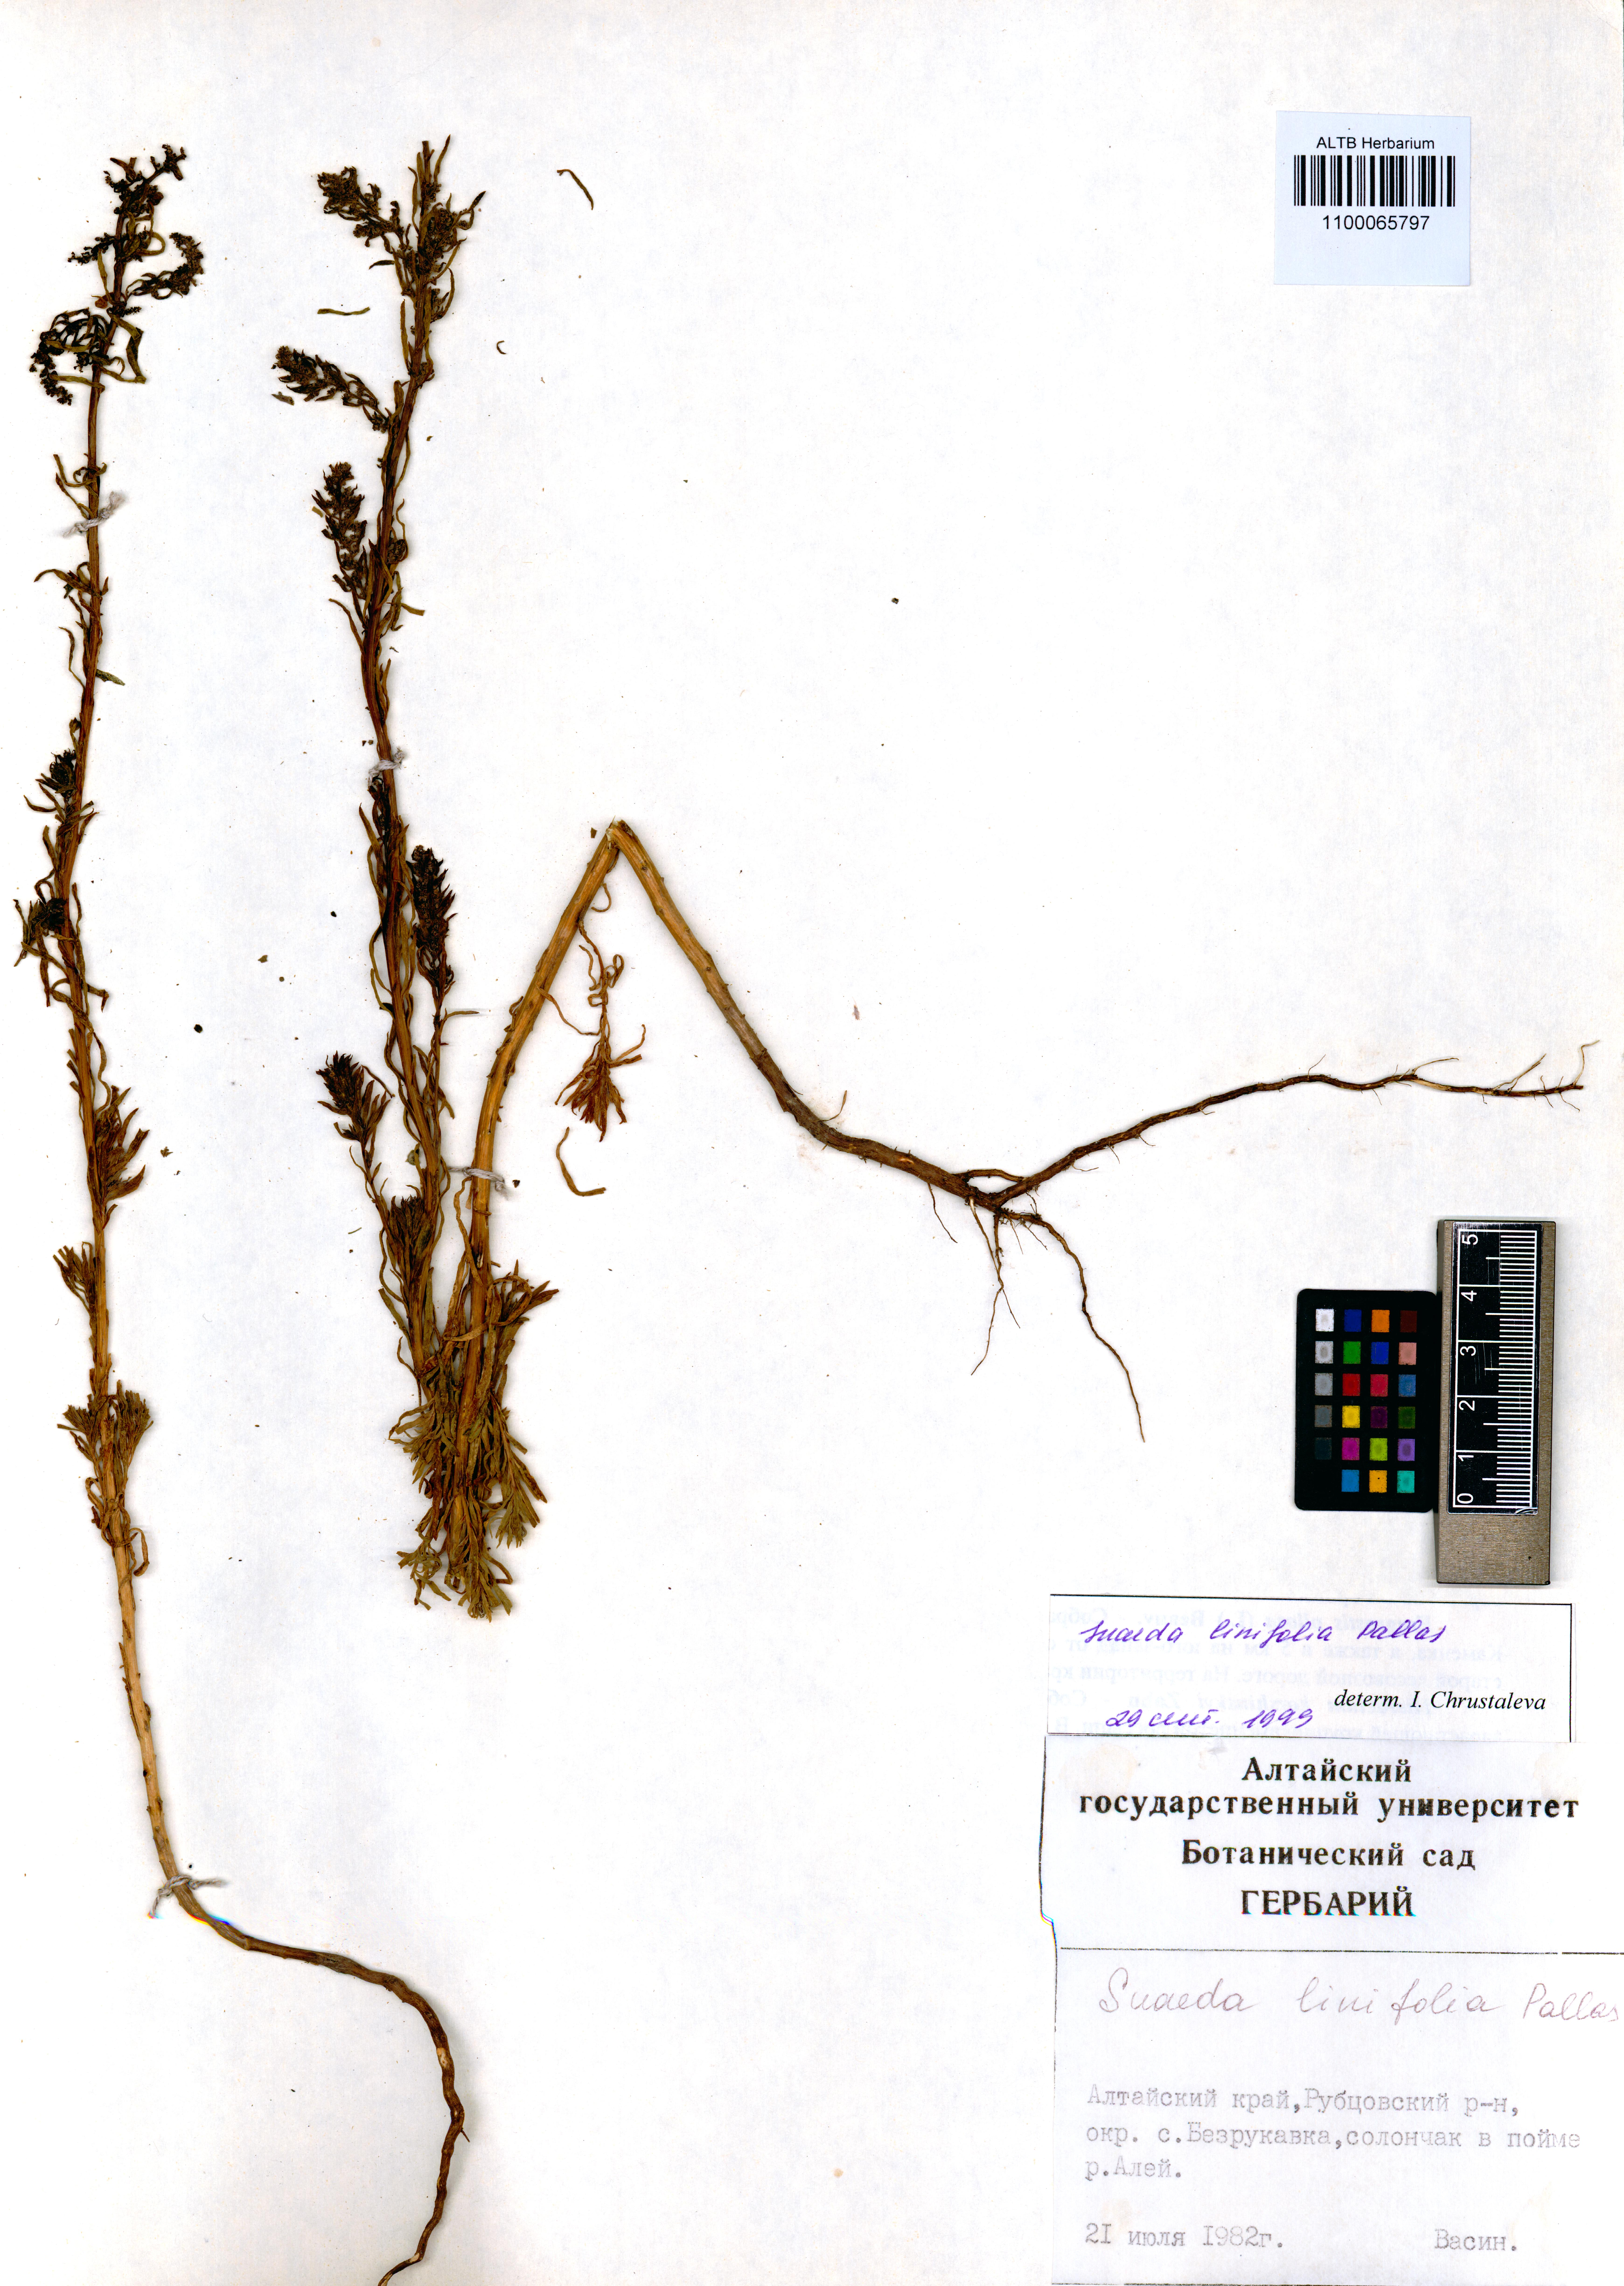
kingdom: Plantae
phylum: Tracheophyta
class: Magnoliopsida
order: Caryophyllales
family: Amaranthaceae
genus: Suaeda
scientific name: Suaeda linifolia
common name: Pin-leaf seepweed
